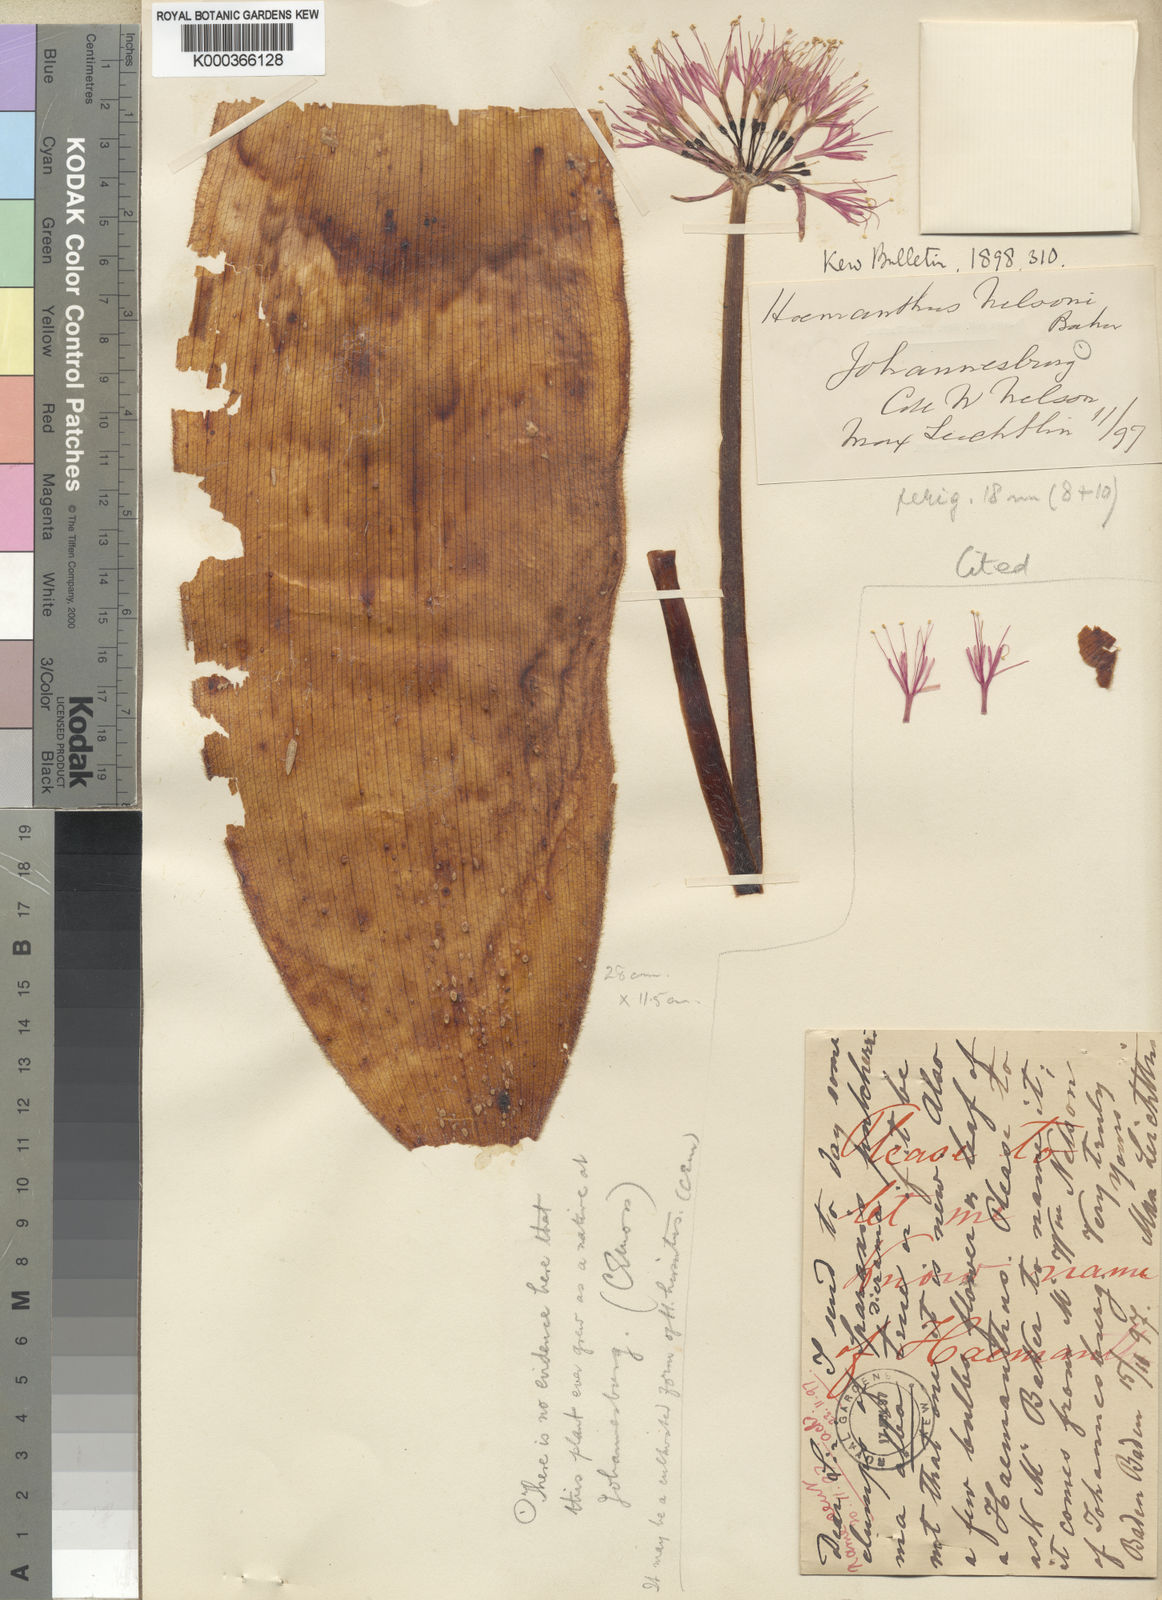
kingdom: Plantae
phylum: Tracheophyta
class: Liliopsida
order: Asparagales
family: Amaryllidaceae
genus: Haemanthus
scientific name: Haemanthus humilis
